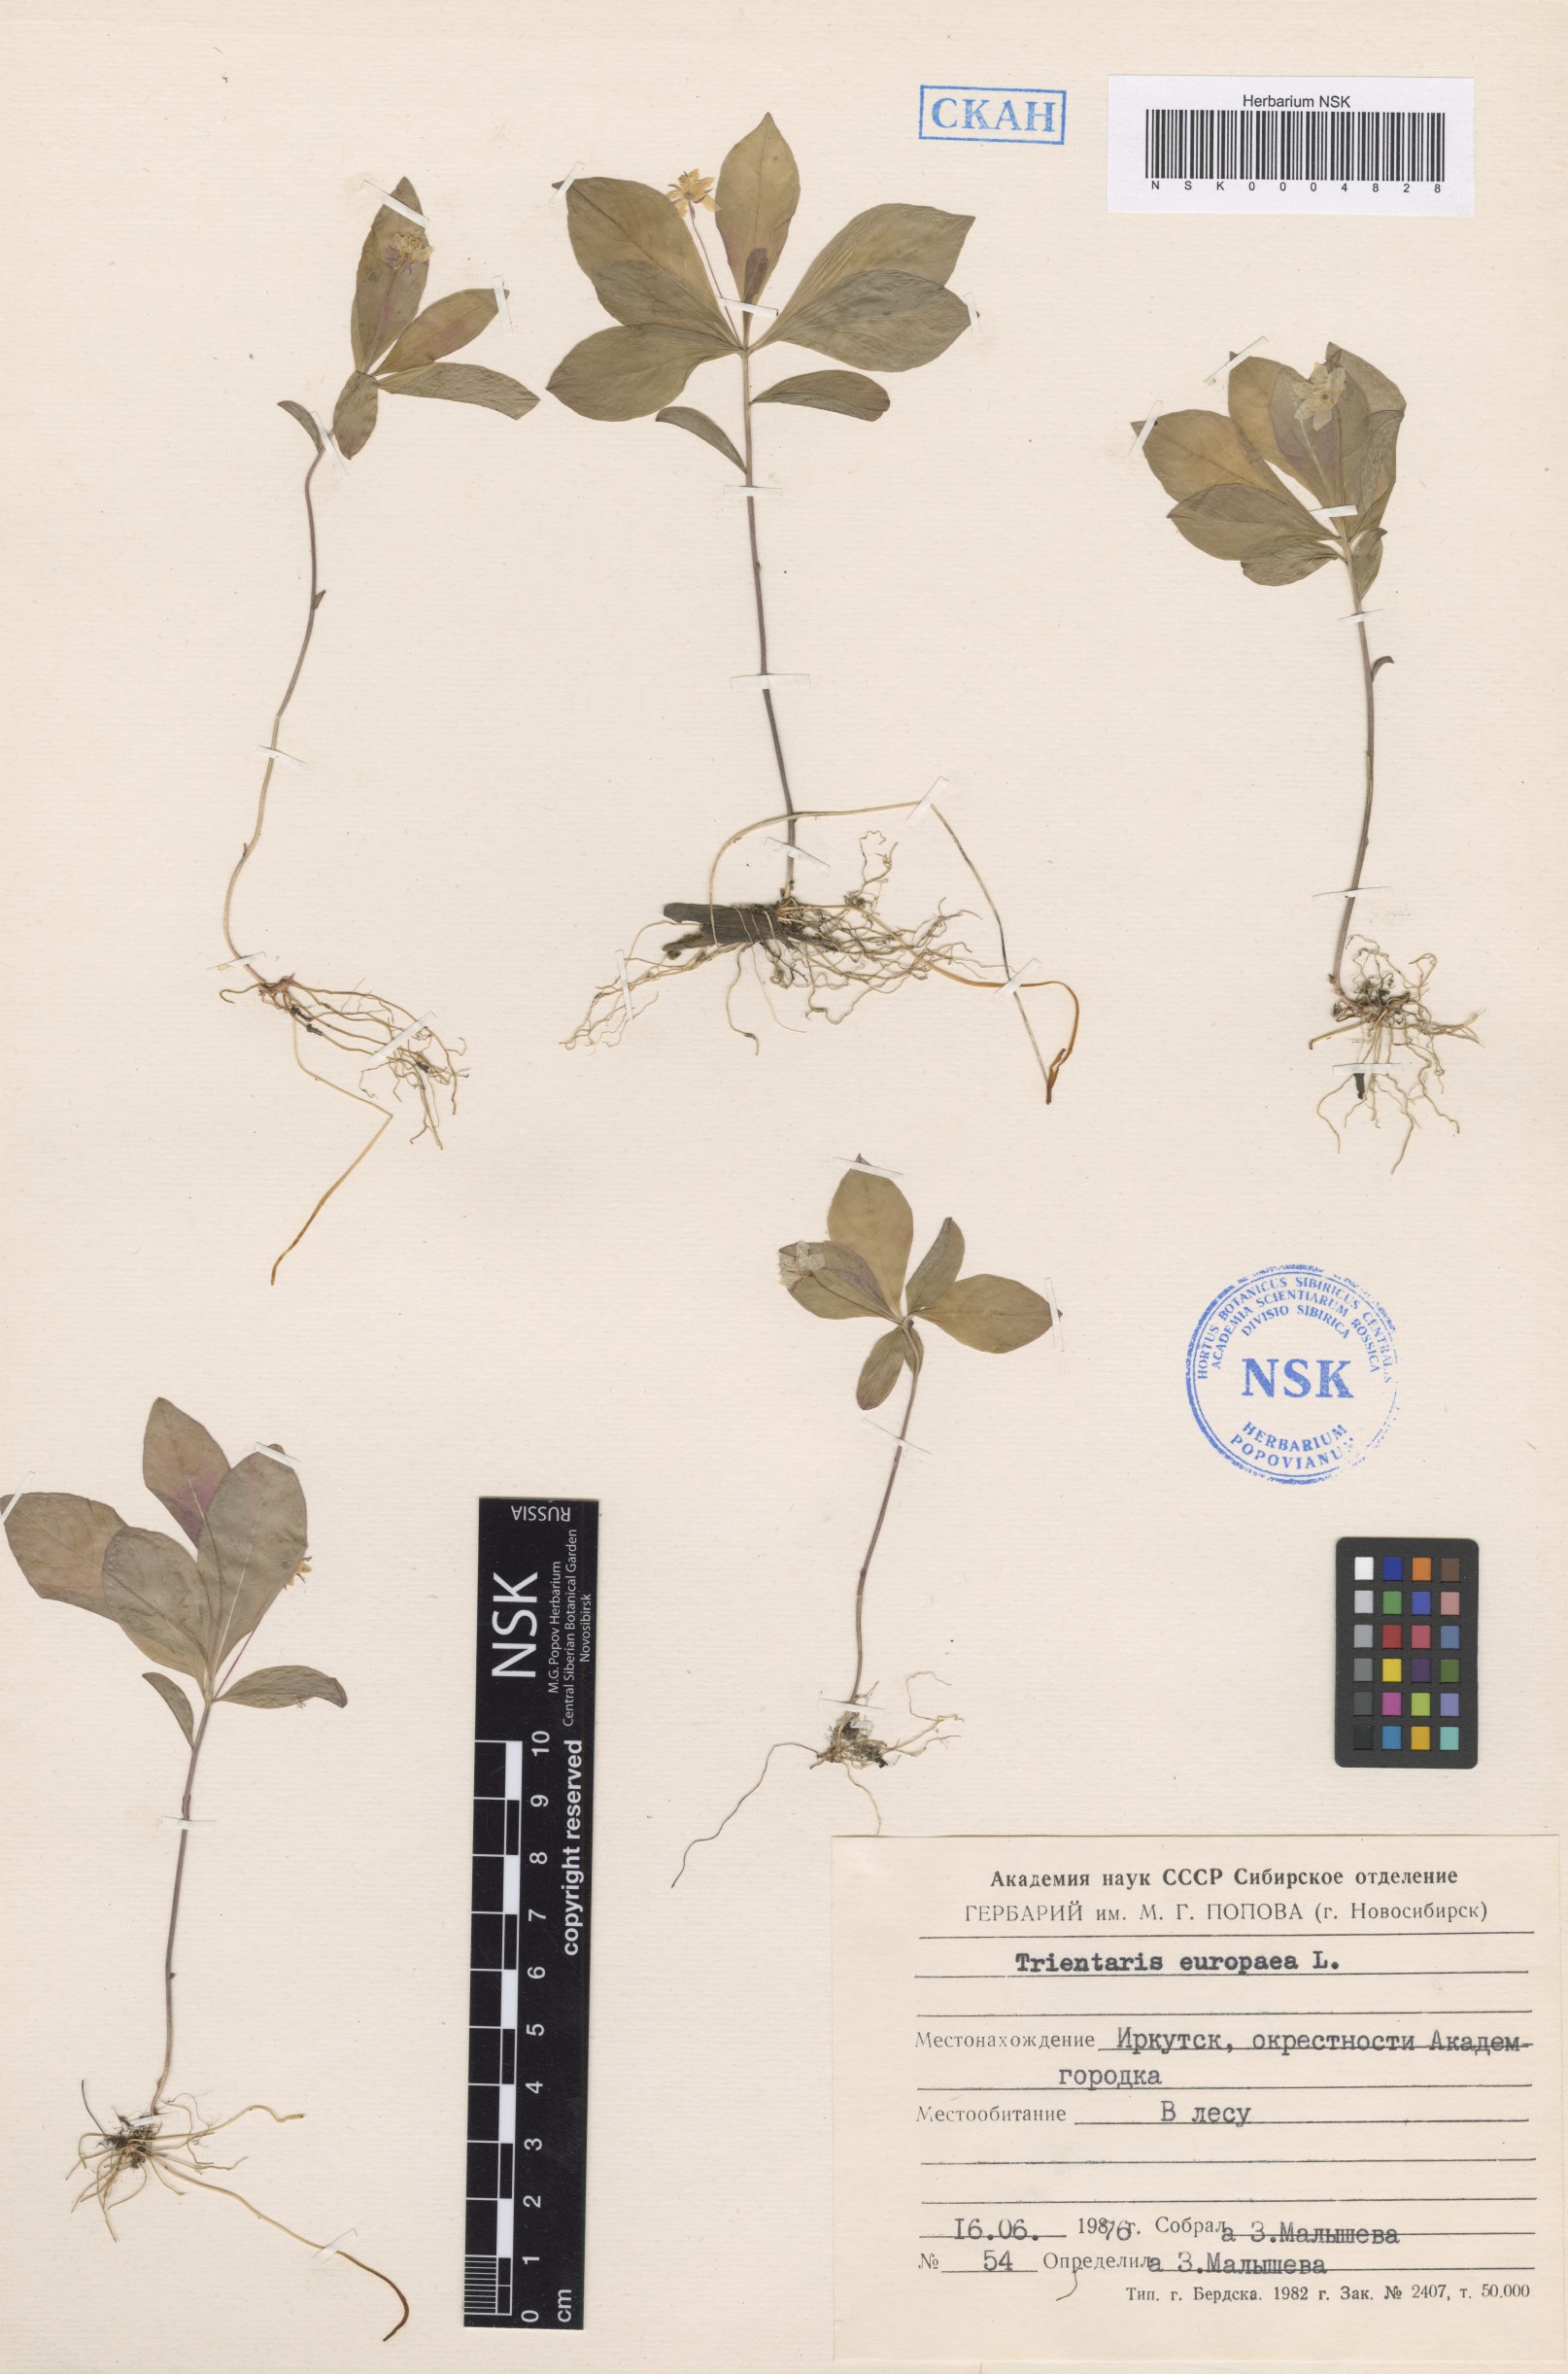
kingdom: Plantae
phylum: Tracheophyta
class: Magnoliopsida
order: Ericales
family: Primulaceae
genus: Lysimachia
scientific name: Lysimachia europaea
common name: Arctic starflower
